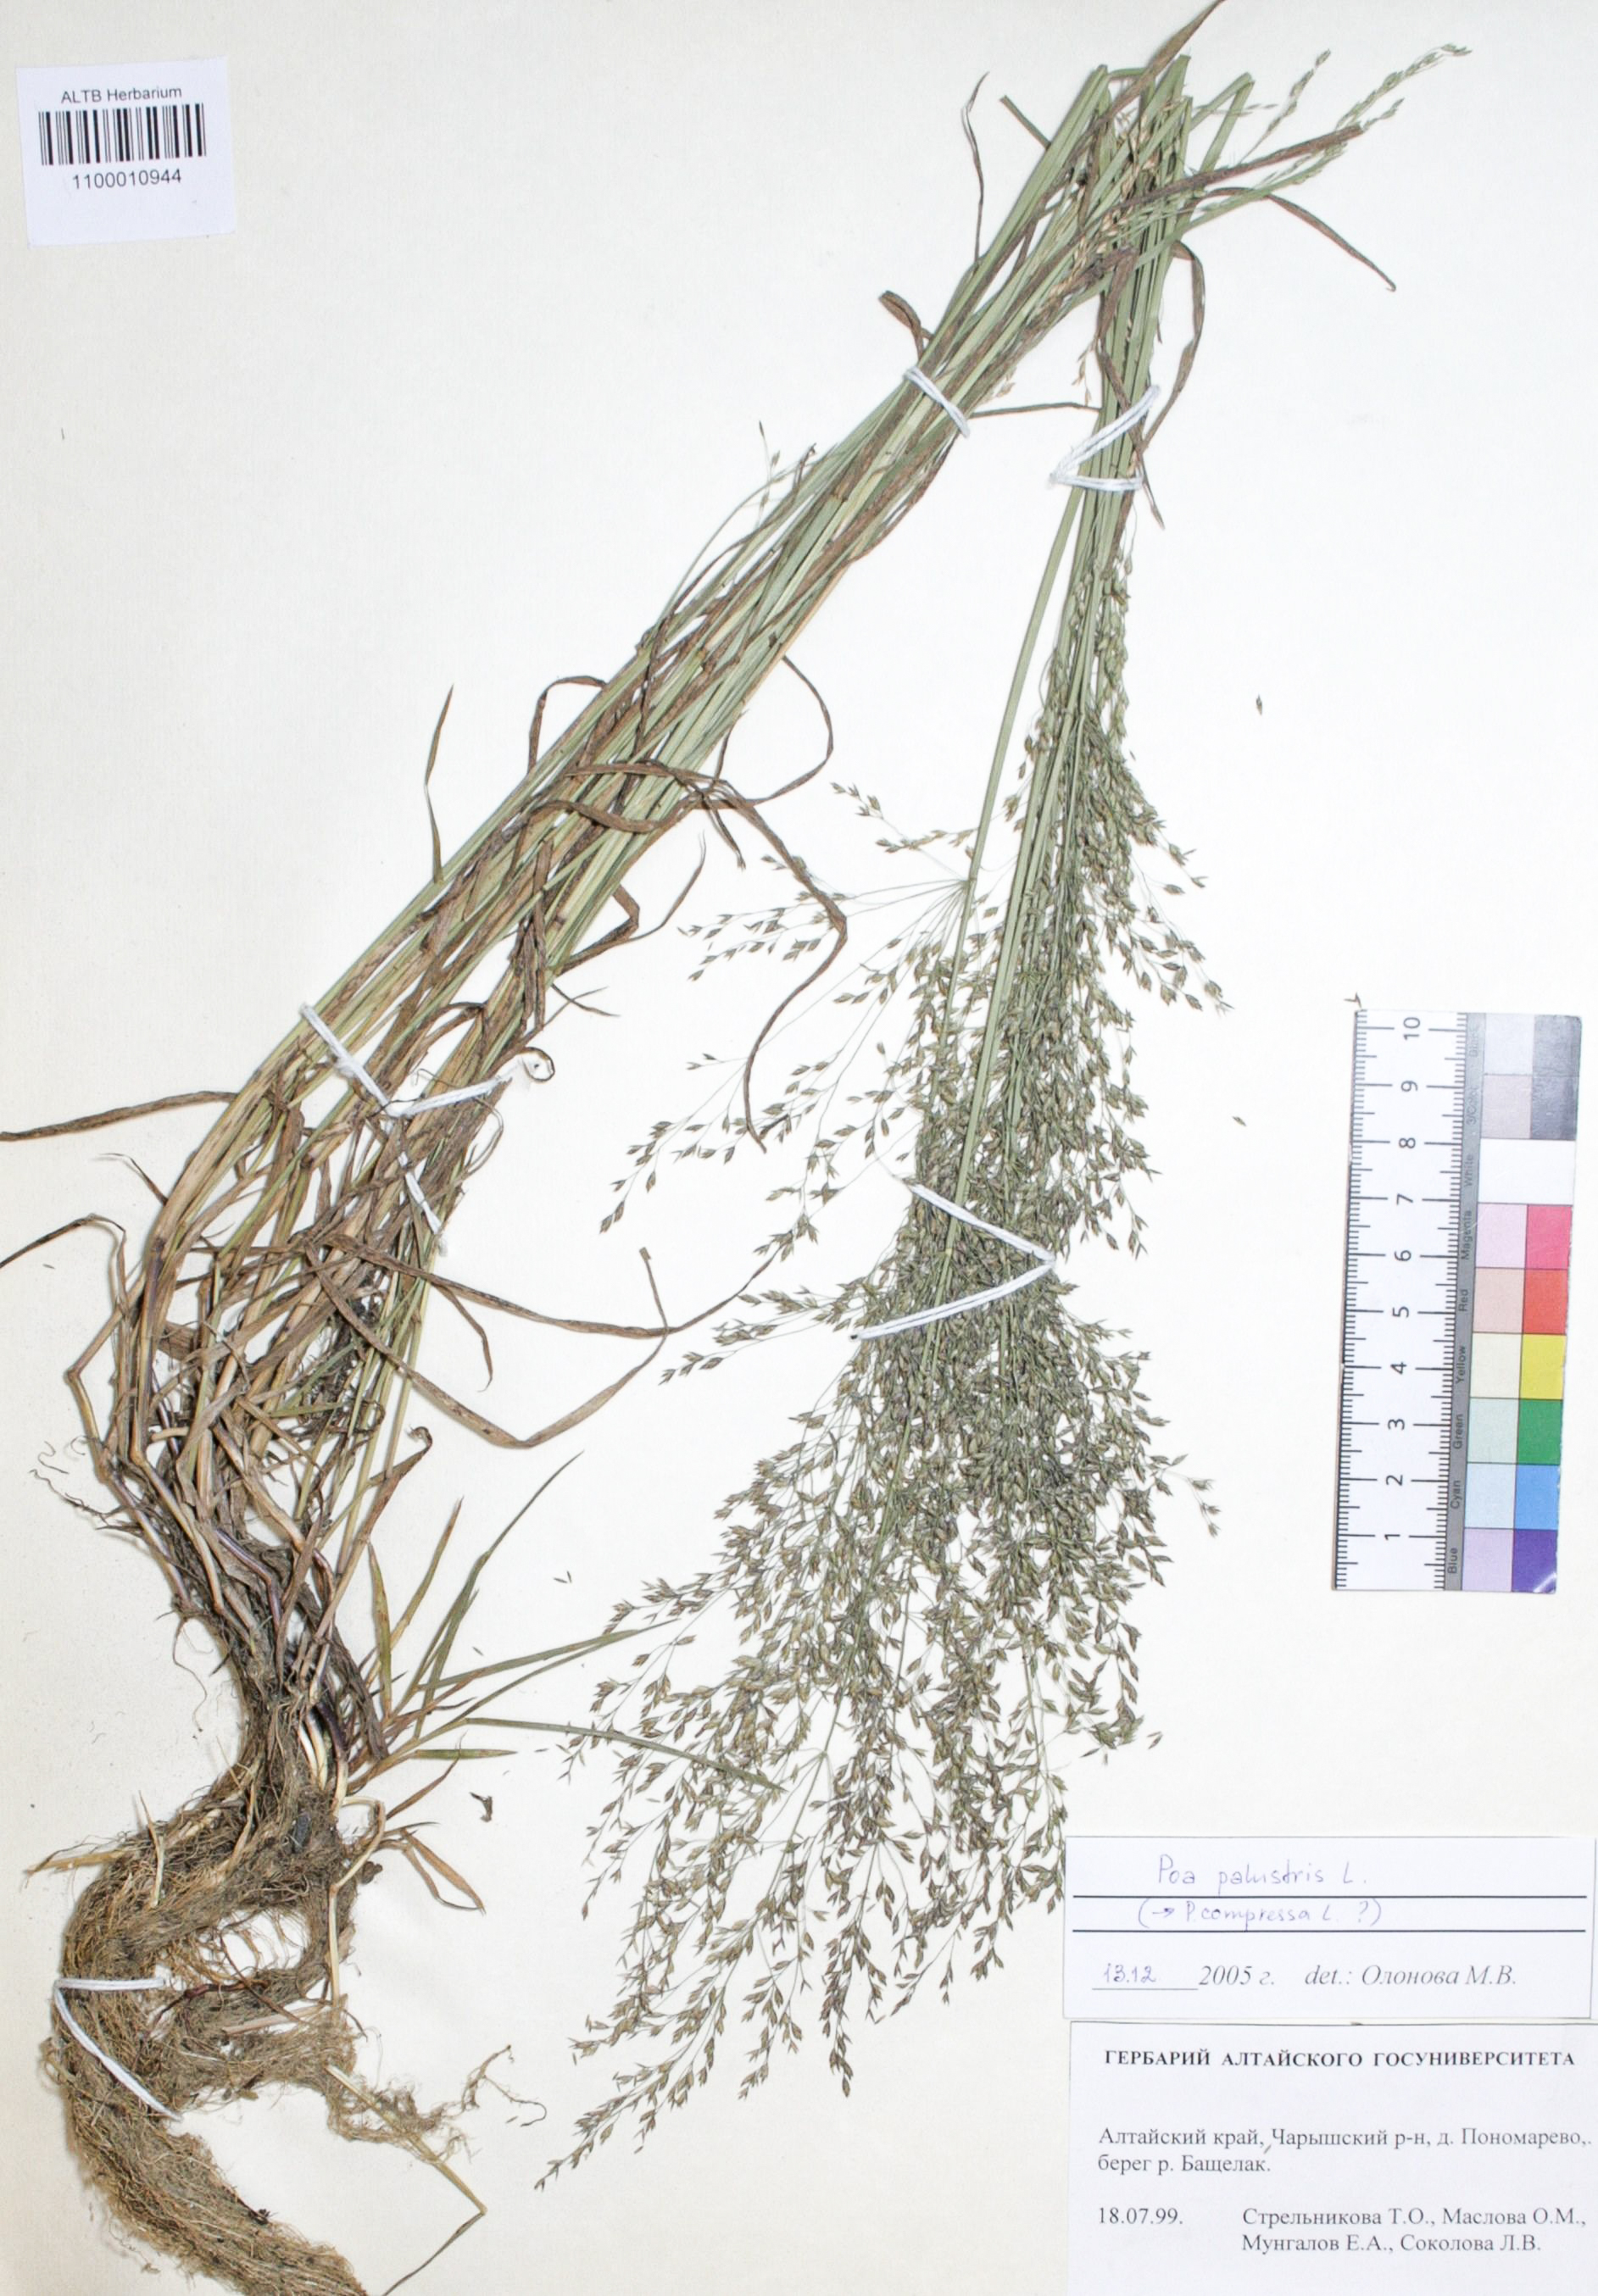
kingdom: Plantae
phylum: Tracheophyta
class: Liliopsida
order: Poales
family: Poaceae
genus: Poa
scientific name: Poa palustris
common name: Swamp meadow-grass
